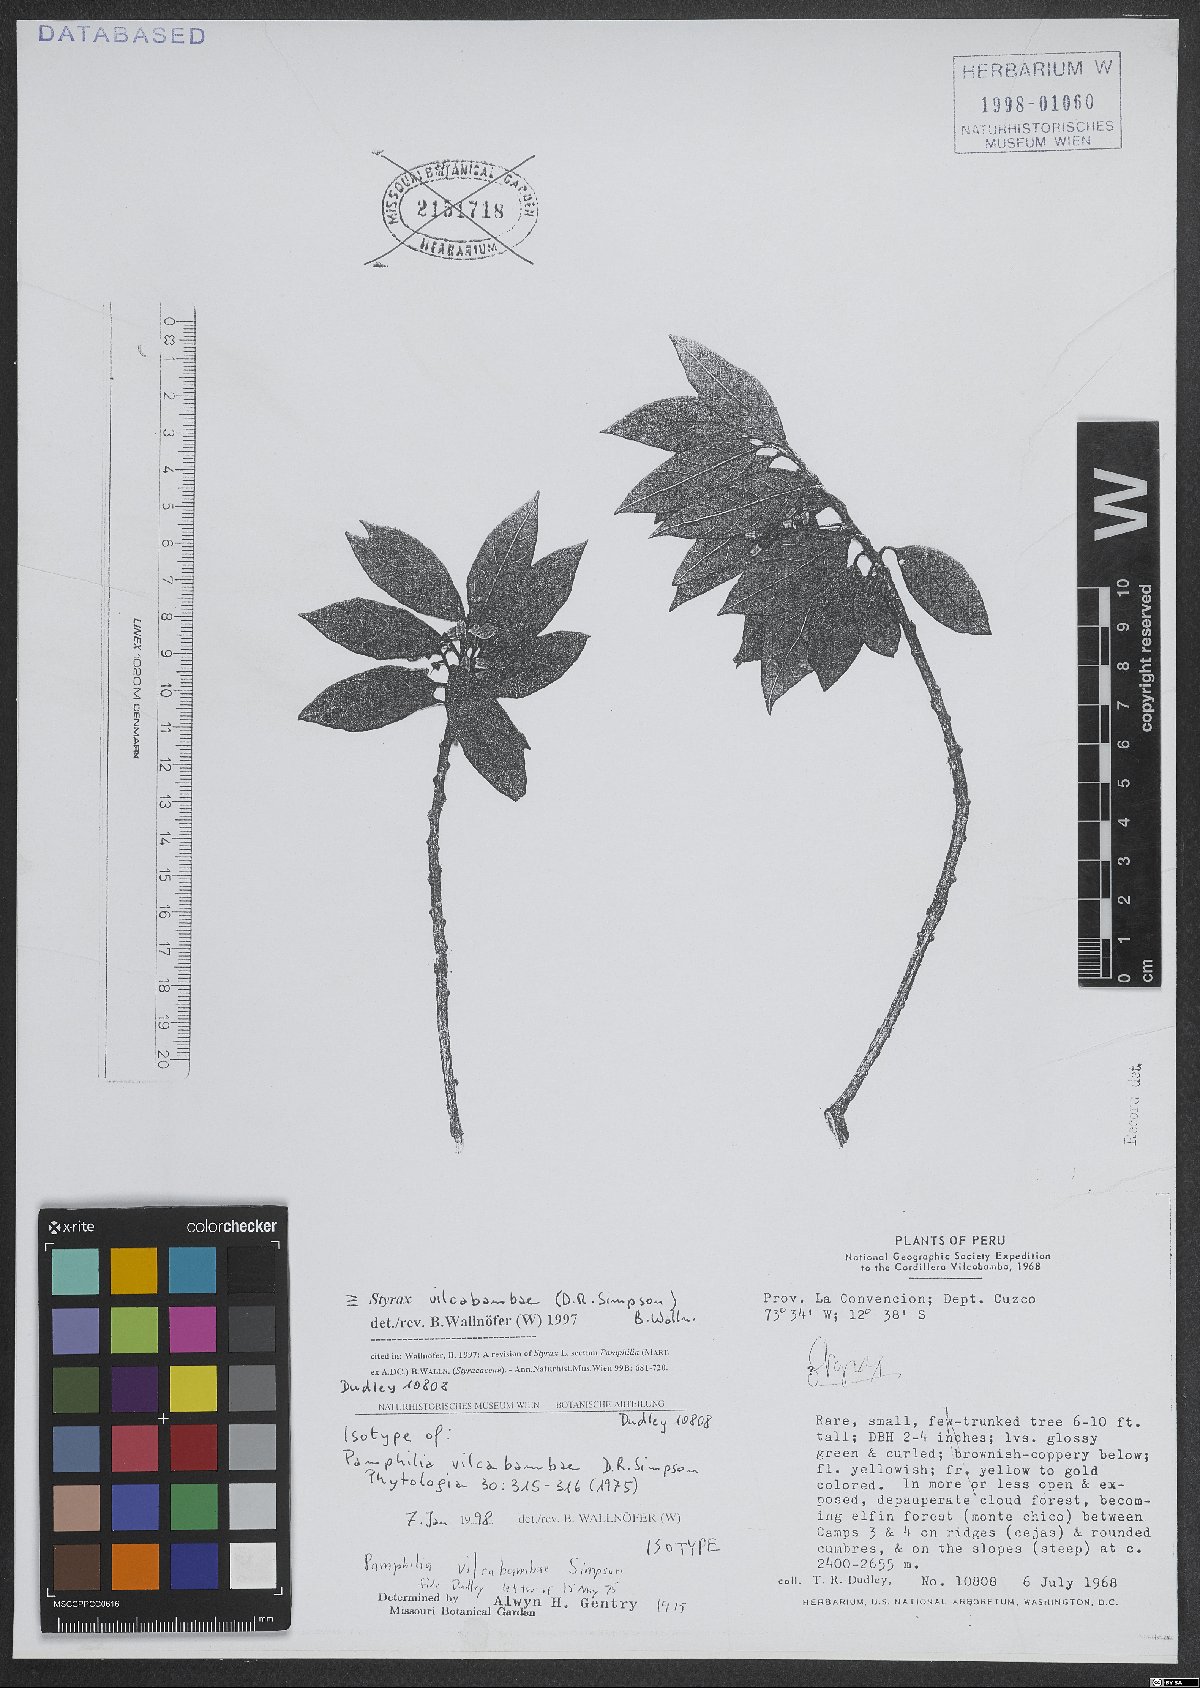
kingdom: Plantae
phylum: Tracheophyta
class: Magnoliopsida
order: Ericales
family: Styracaceae
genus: Styrax
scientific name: Styrax vilcabambae
